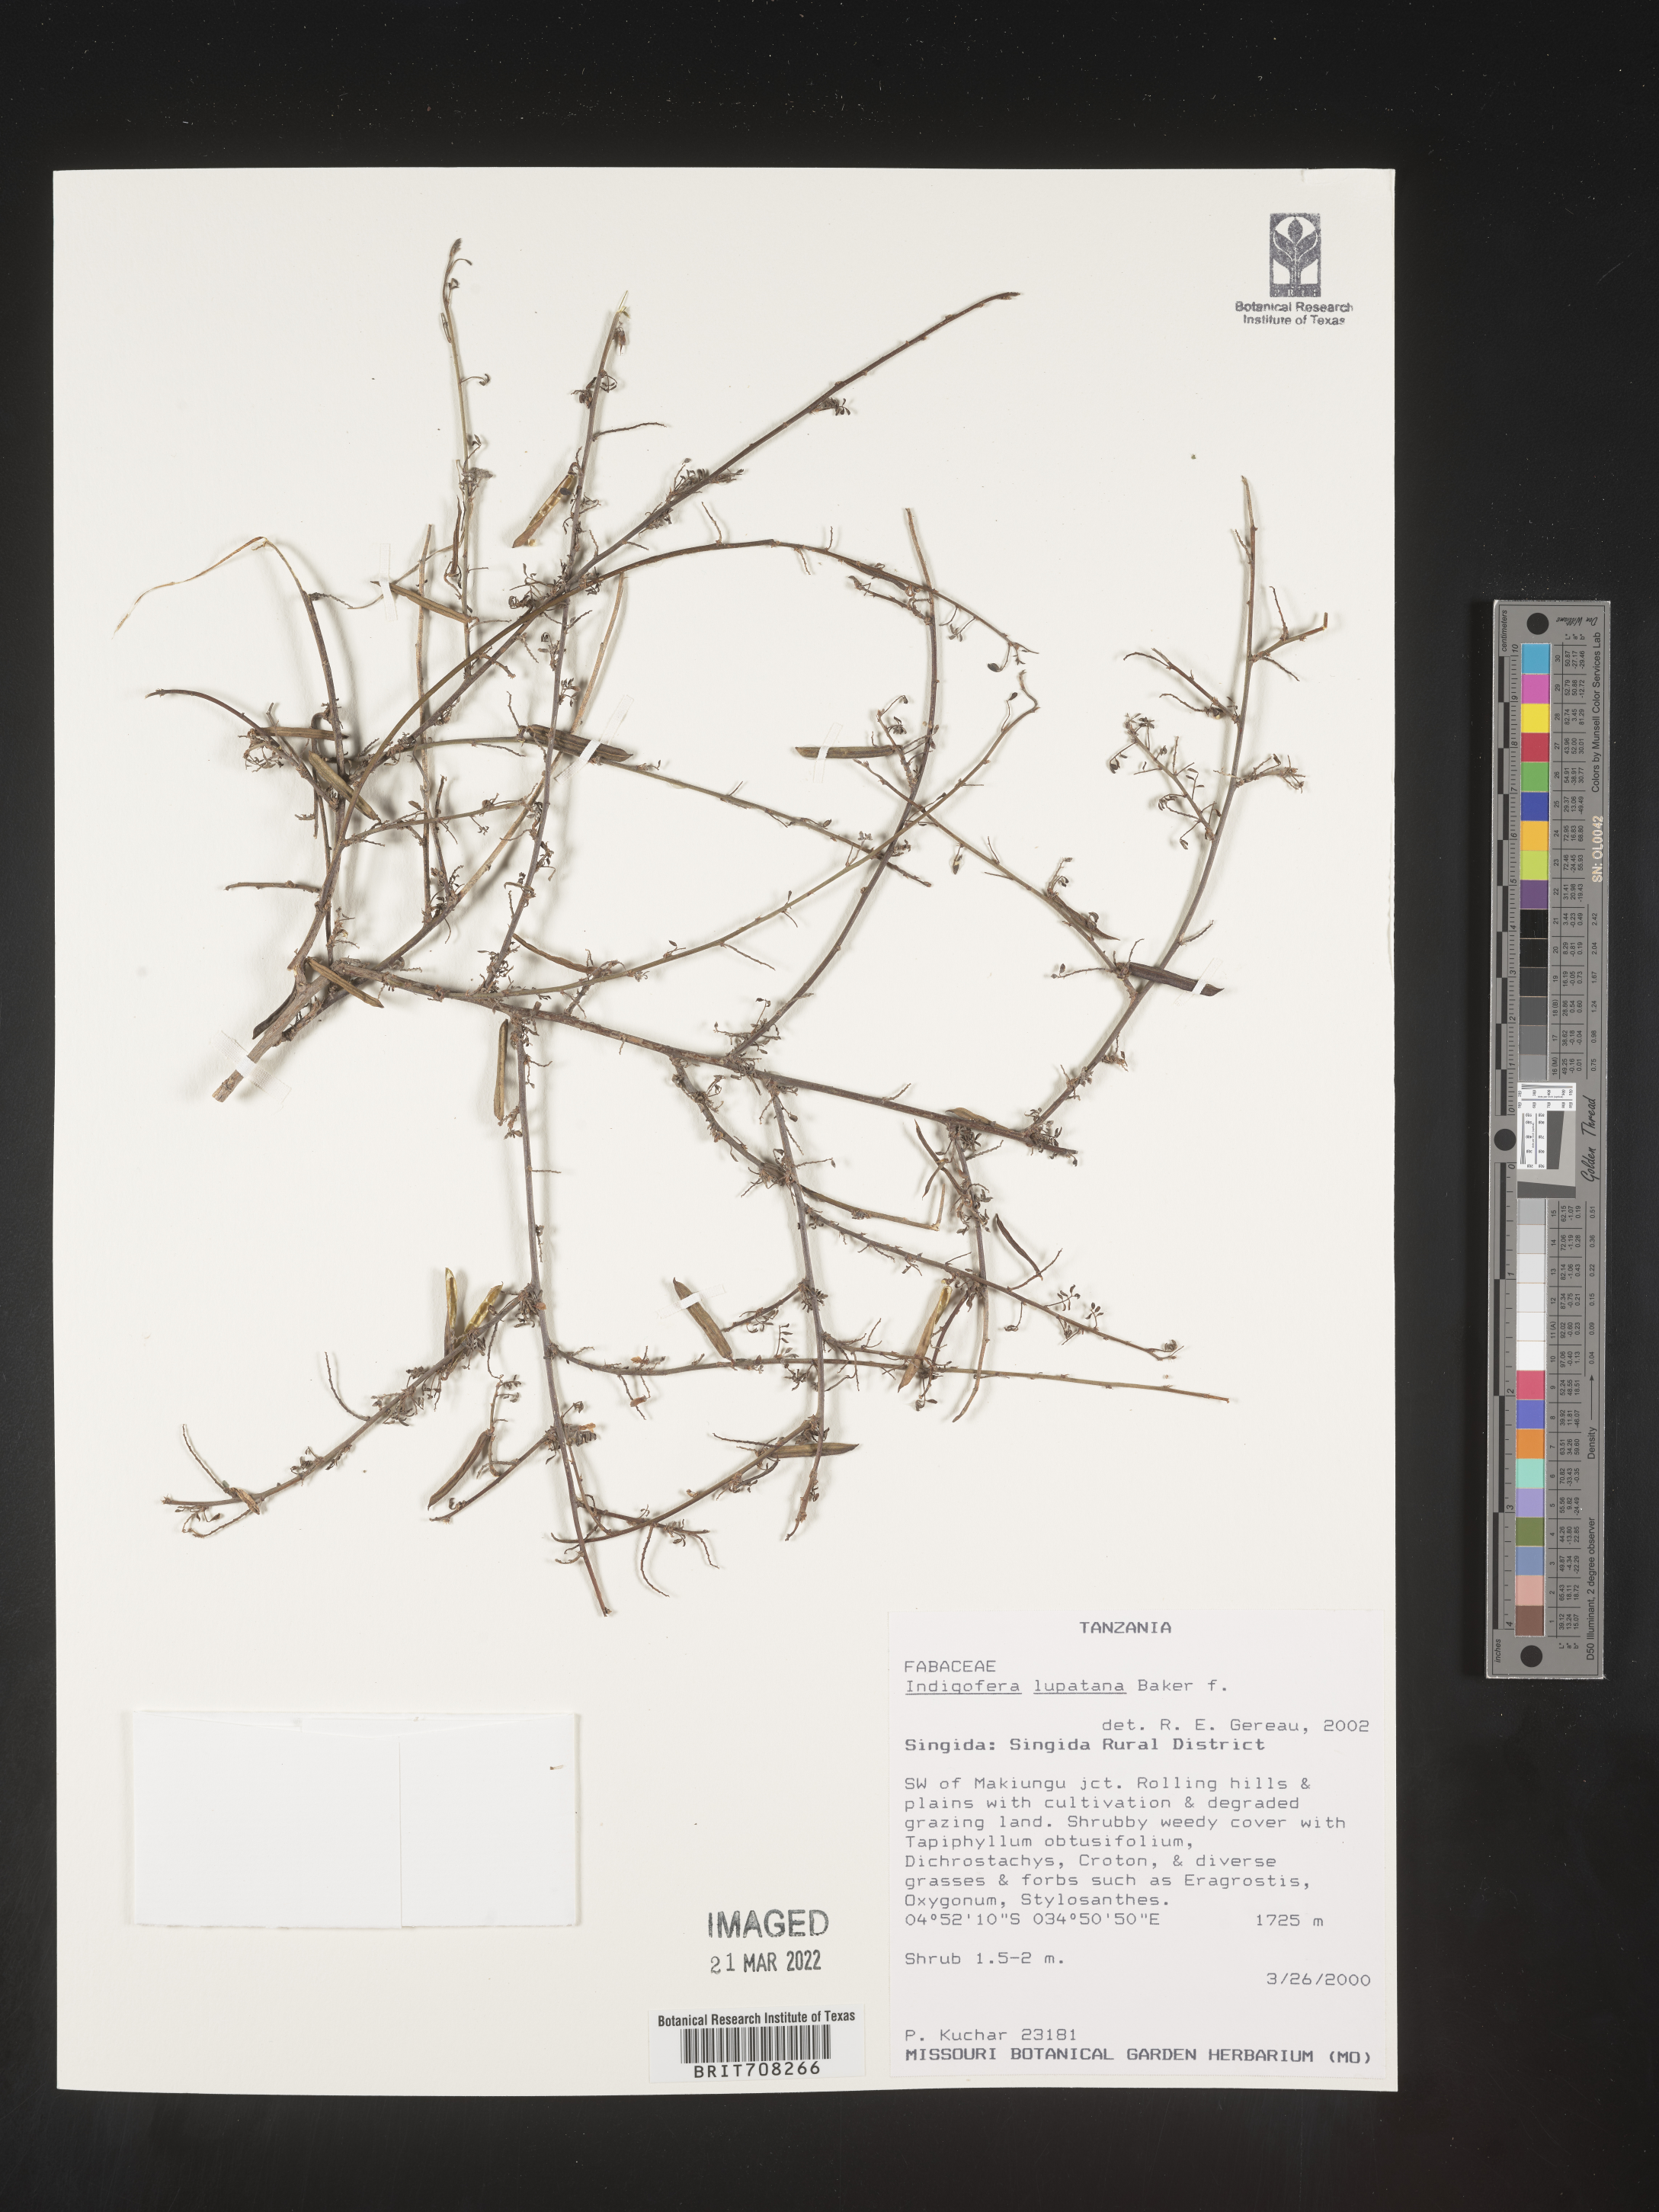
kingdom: Plantae
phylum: Tracheophyta
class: Magnoliopsida
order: Fabales
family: Fabaceae
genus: Indigofera
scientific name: Indigofera
